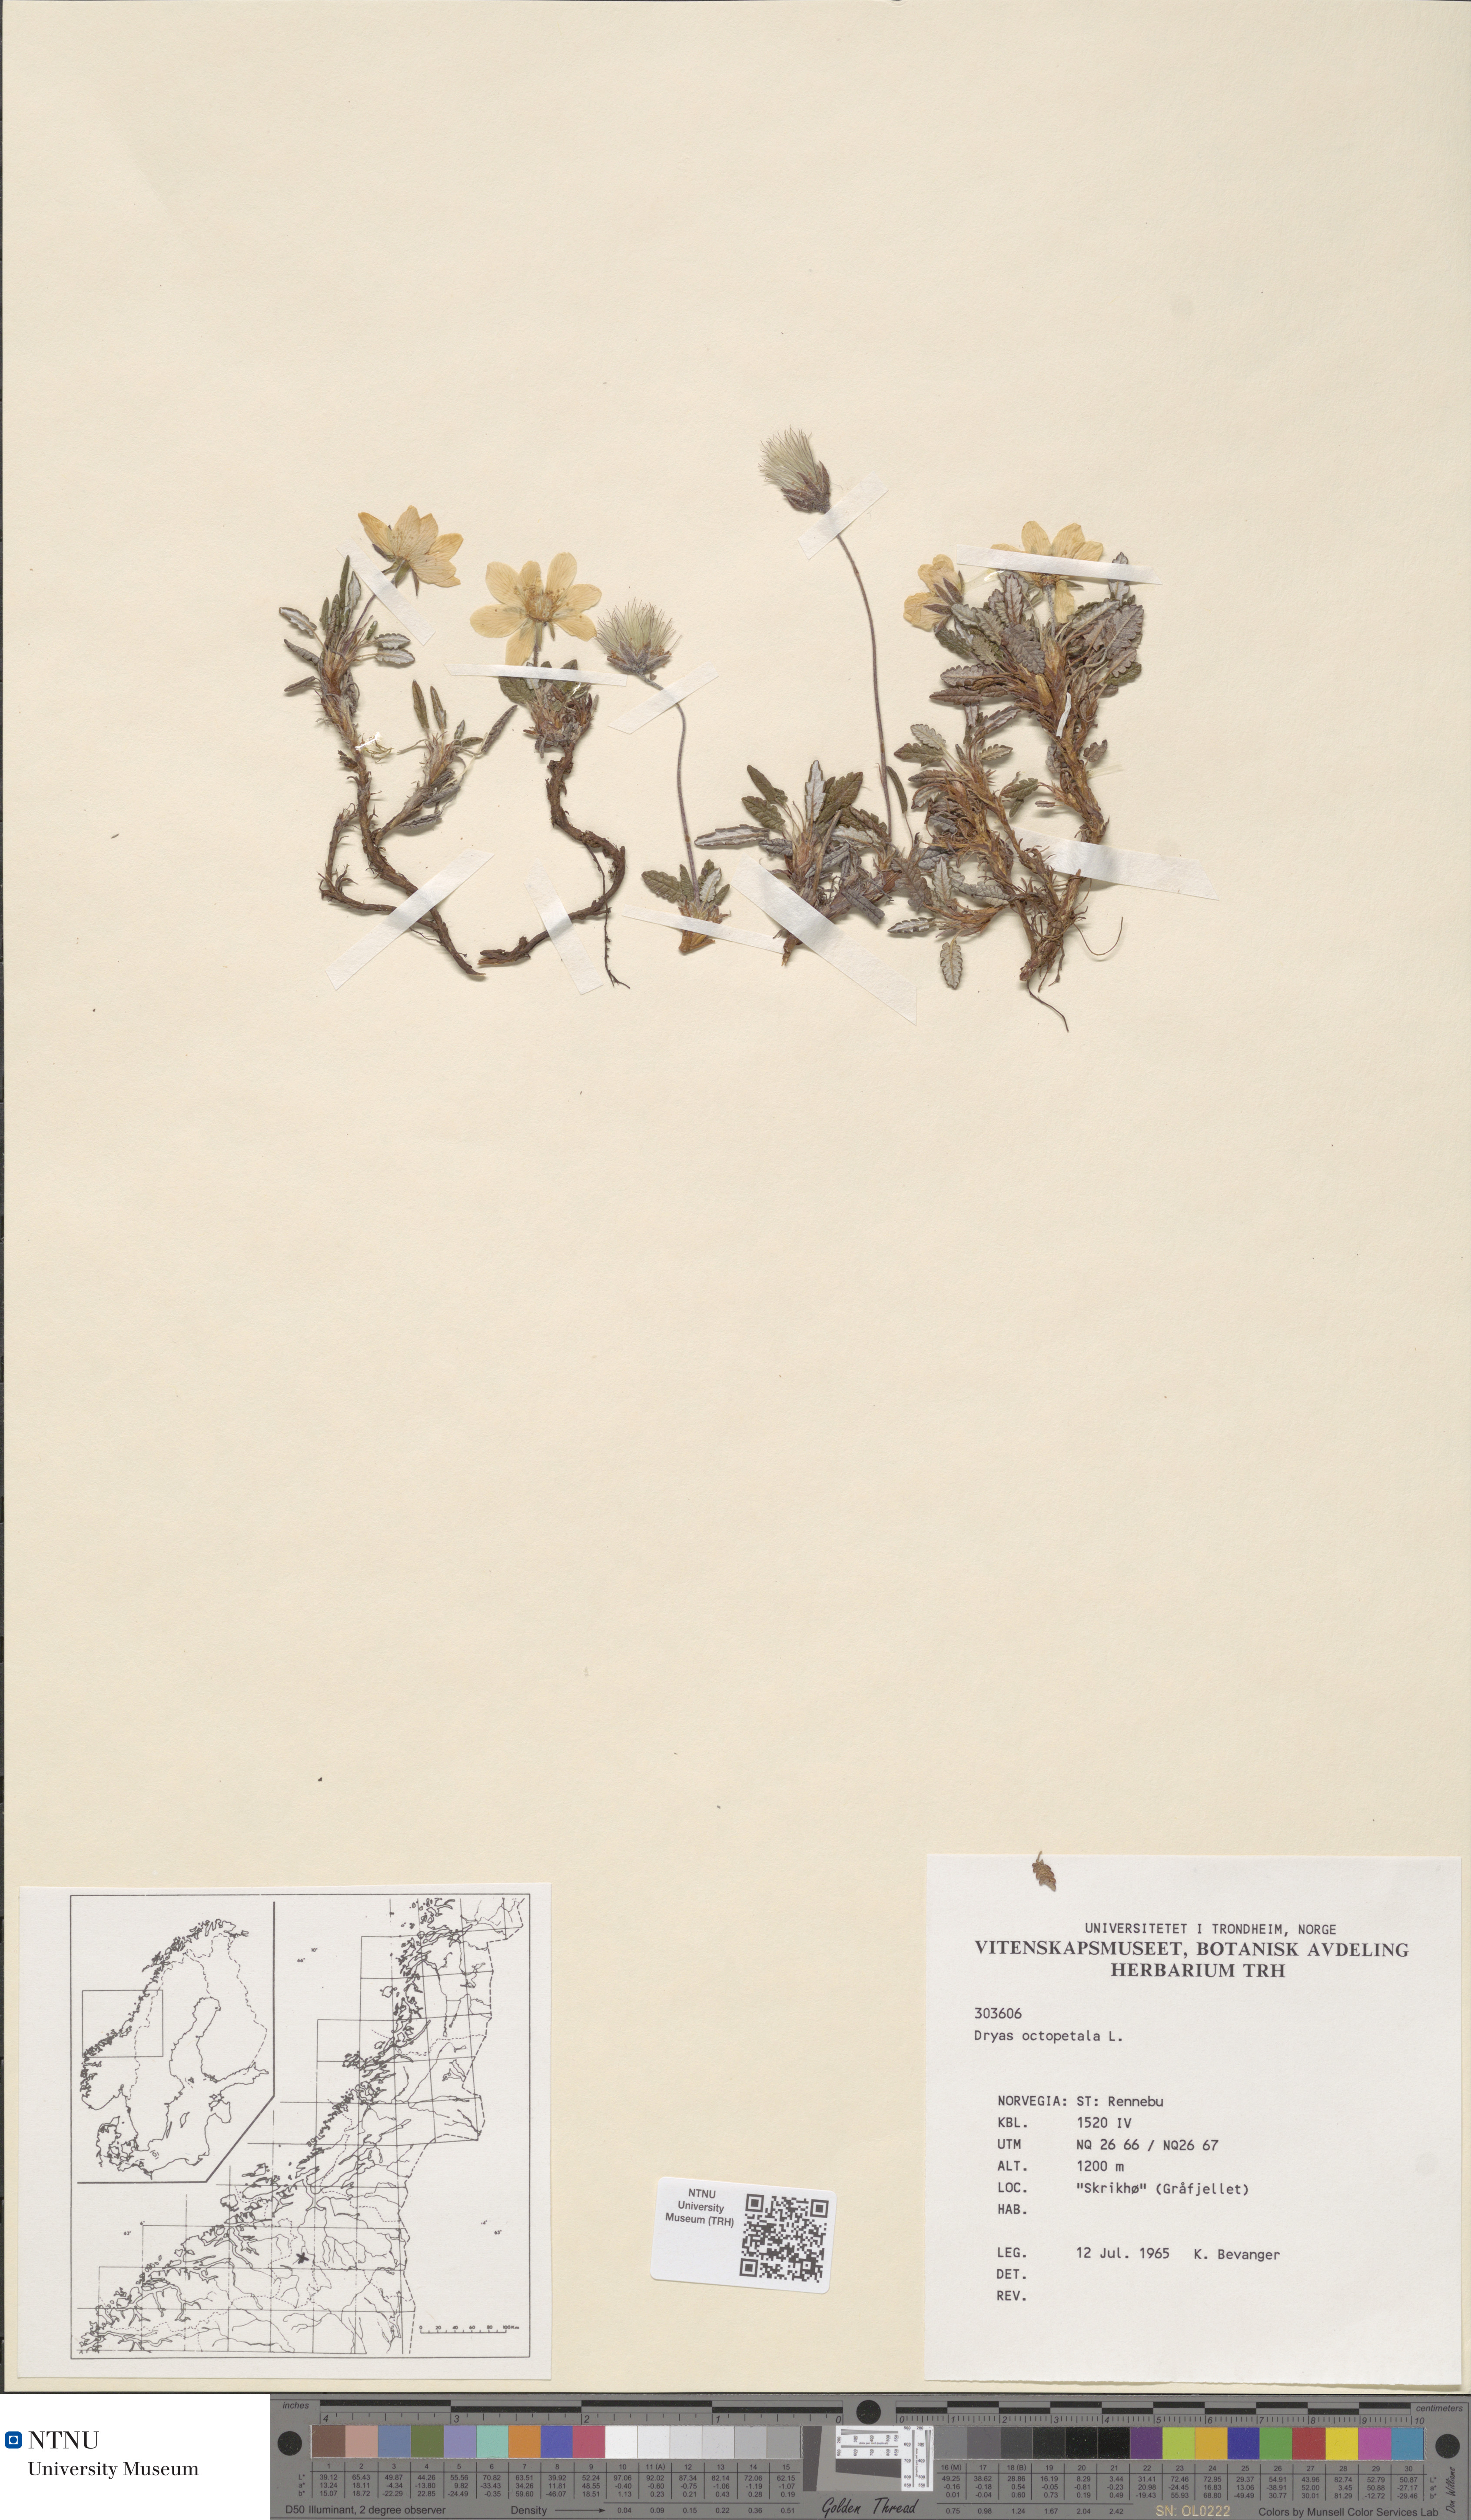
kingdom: Plantae
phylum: Tracheophyta
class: Magnoliopsida
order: Rosales
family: Rosaceae
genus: Dryas
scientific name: Dryas octopetala
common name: Eight-petal mountain-avens
